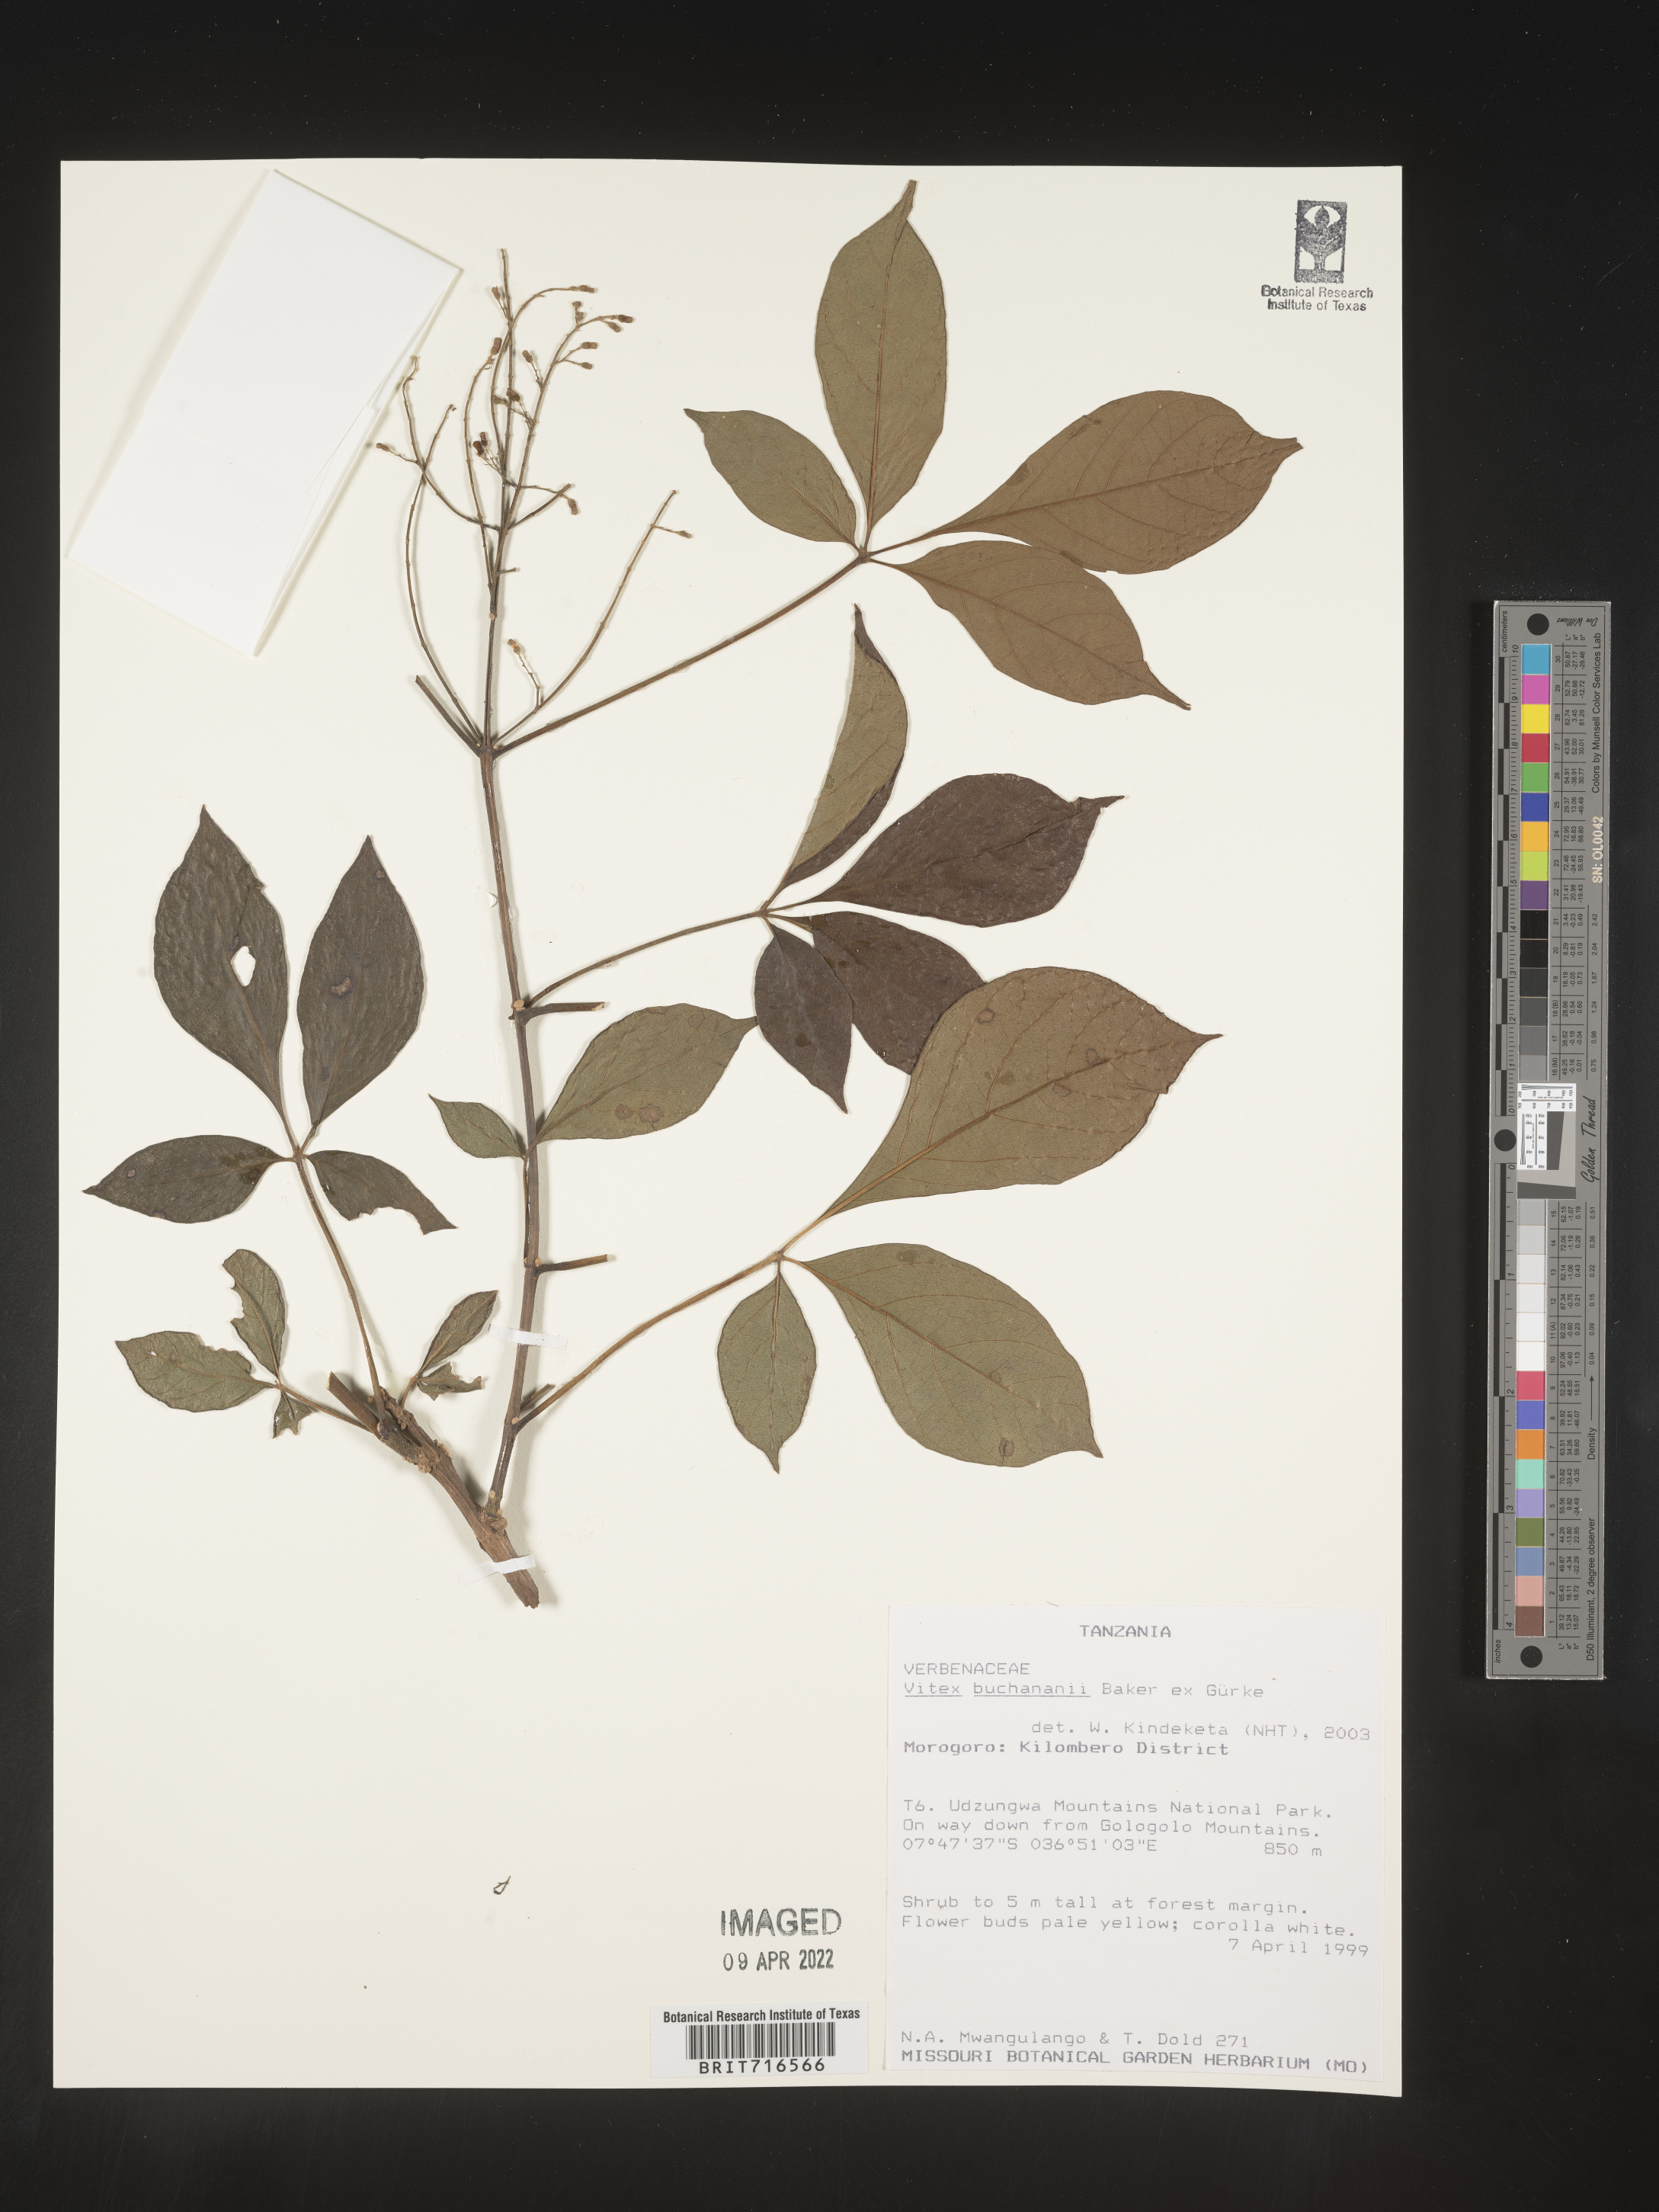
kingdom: Plantae
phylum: Tracheophyta
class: Magnoliopsida
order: Lamiales
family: Lamiaceae
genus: Vitex
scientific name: Vitex
